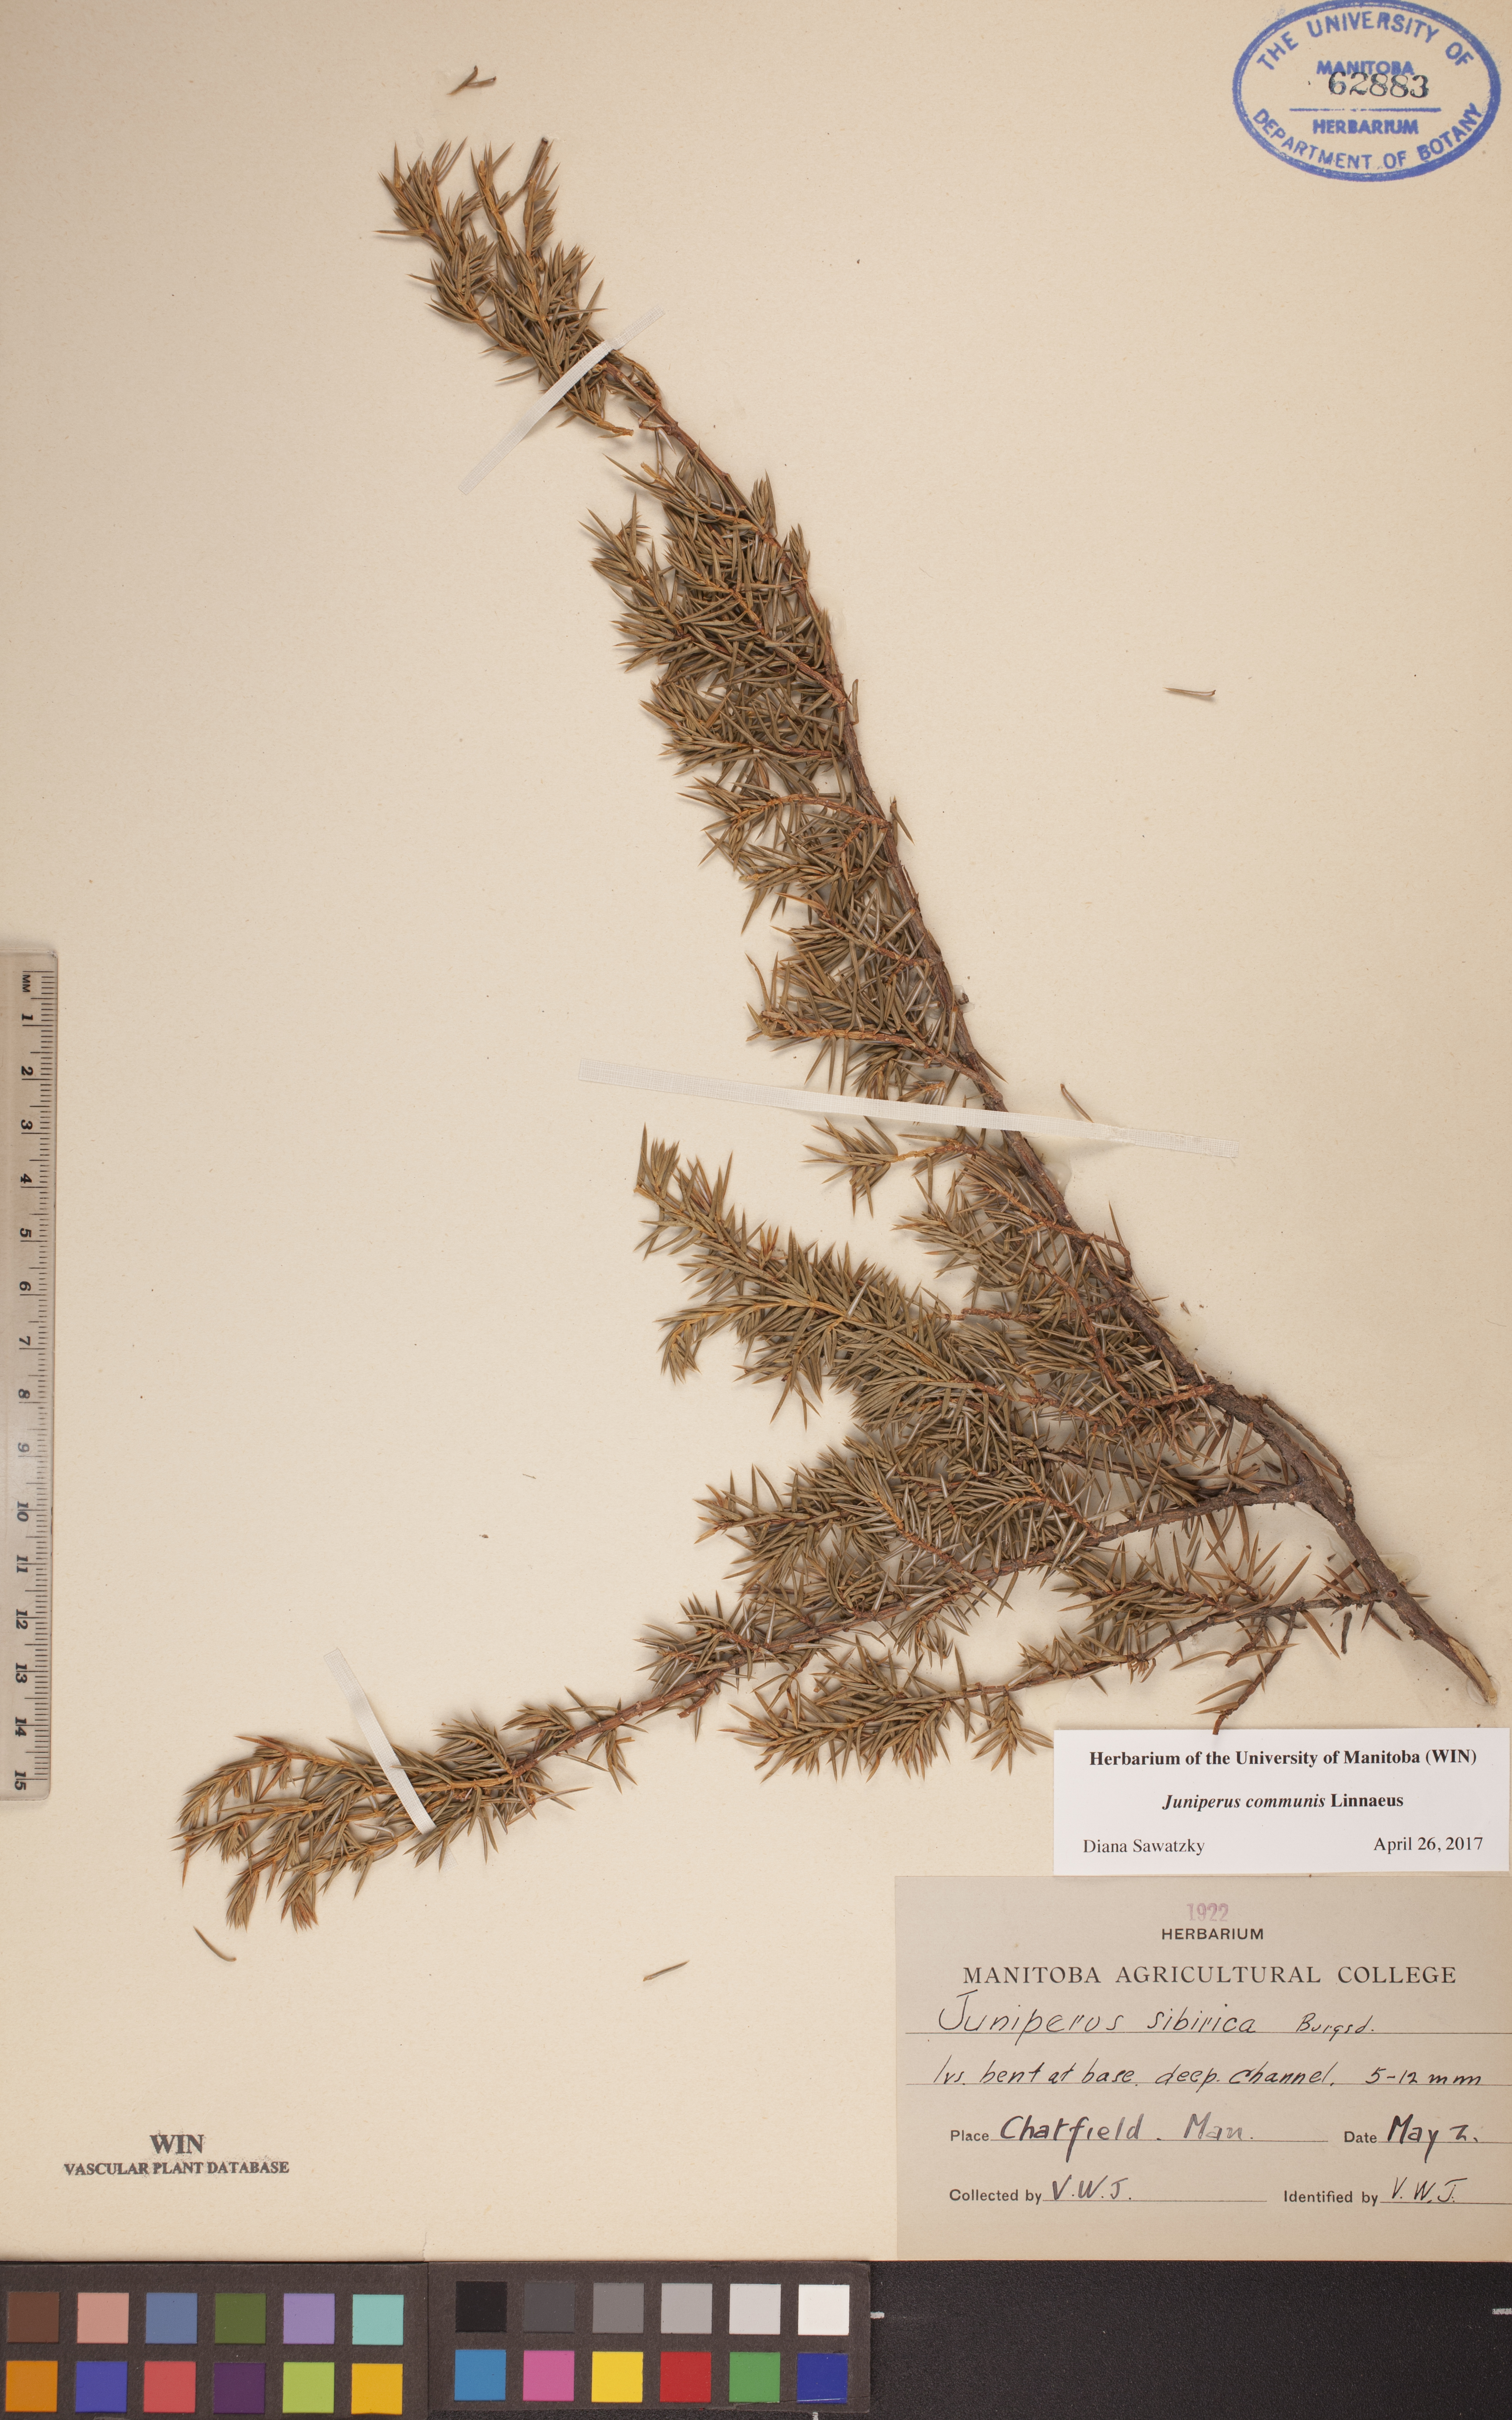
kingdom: Plantae
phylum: Tracheophyta
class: Pinopsida
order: Pinales
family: Cupressaceae
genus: Juniperus
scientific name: Juniperus communis
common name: Common juniper
